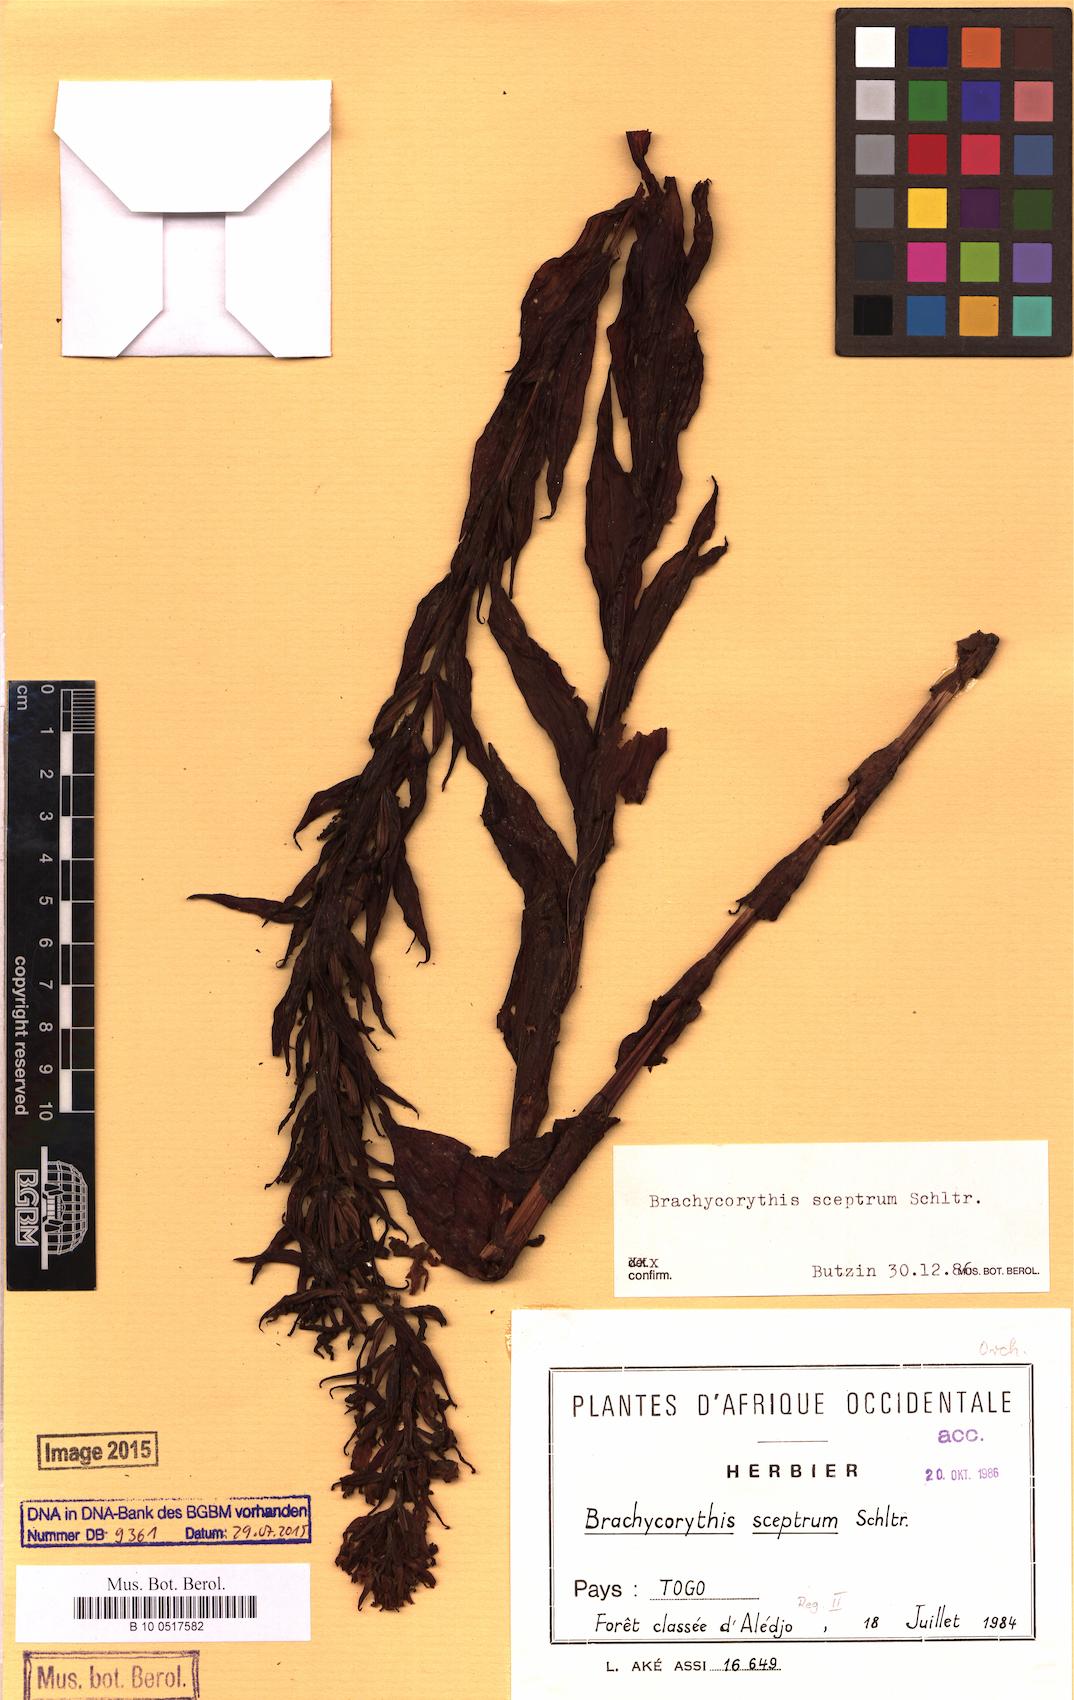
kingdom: Plantae
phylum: Tracheophyta
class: Liliopsida
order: Asparagales
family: Orchidaceae
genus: Brachycorythis
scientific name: Brachycorythis sceptrum
